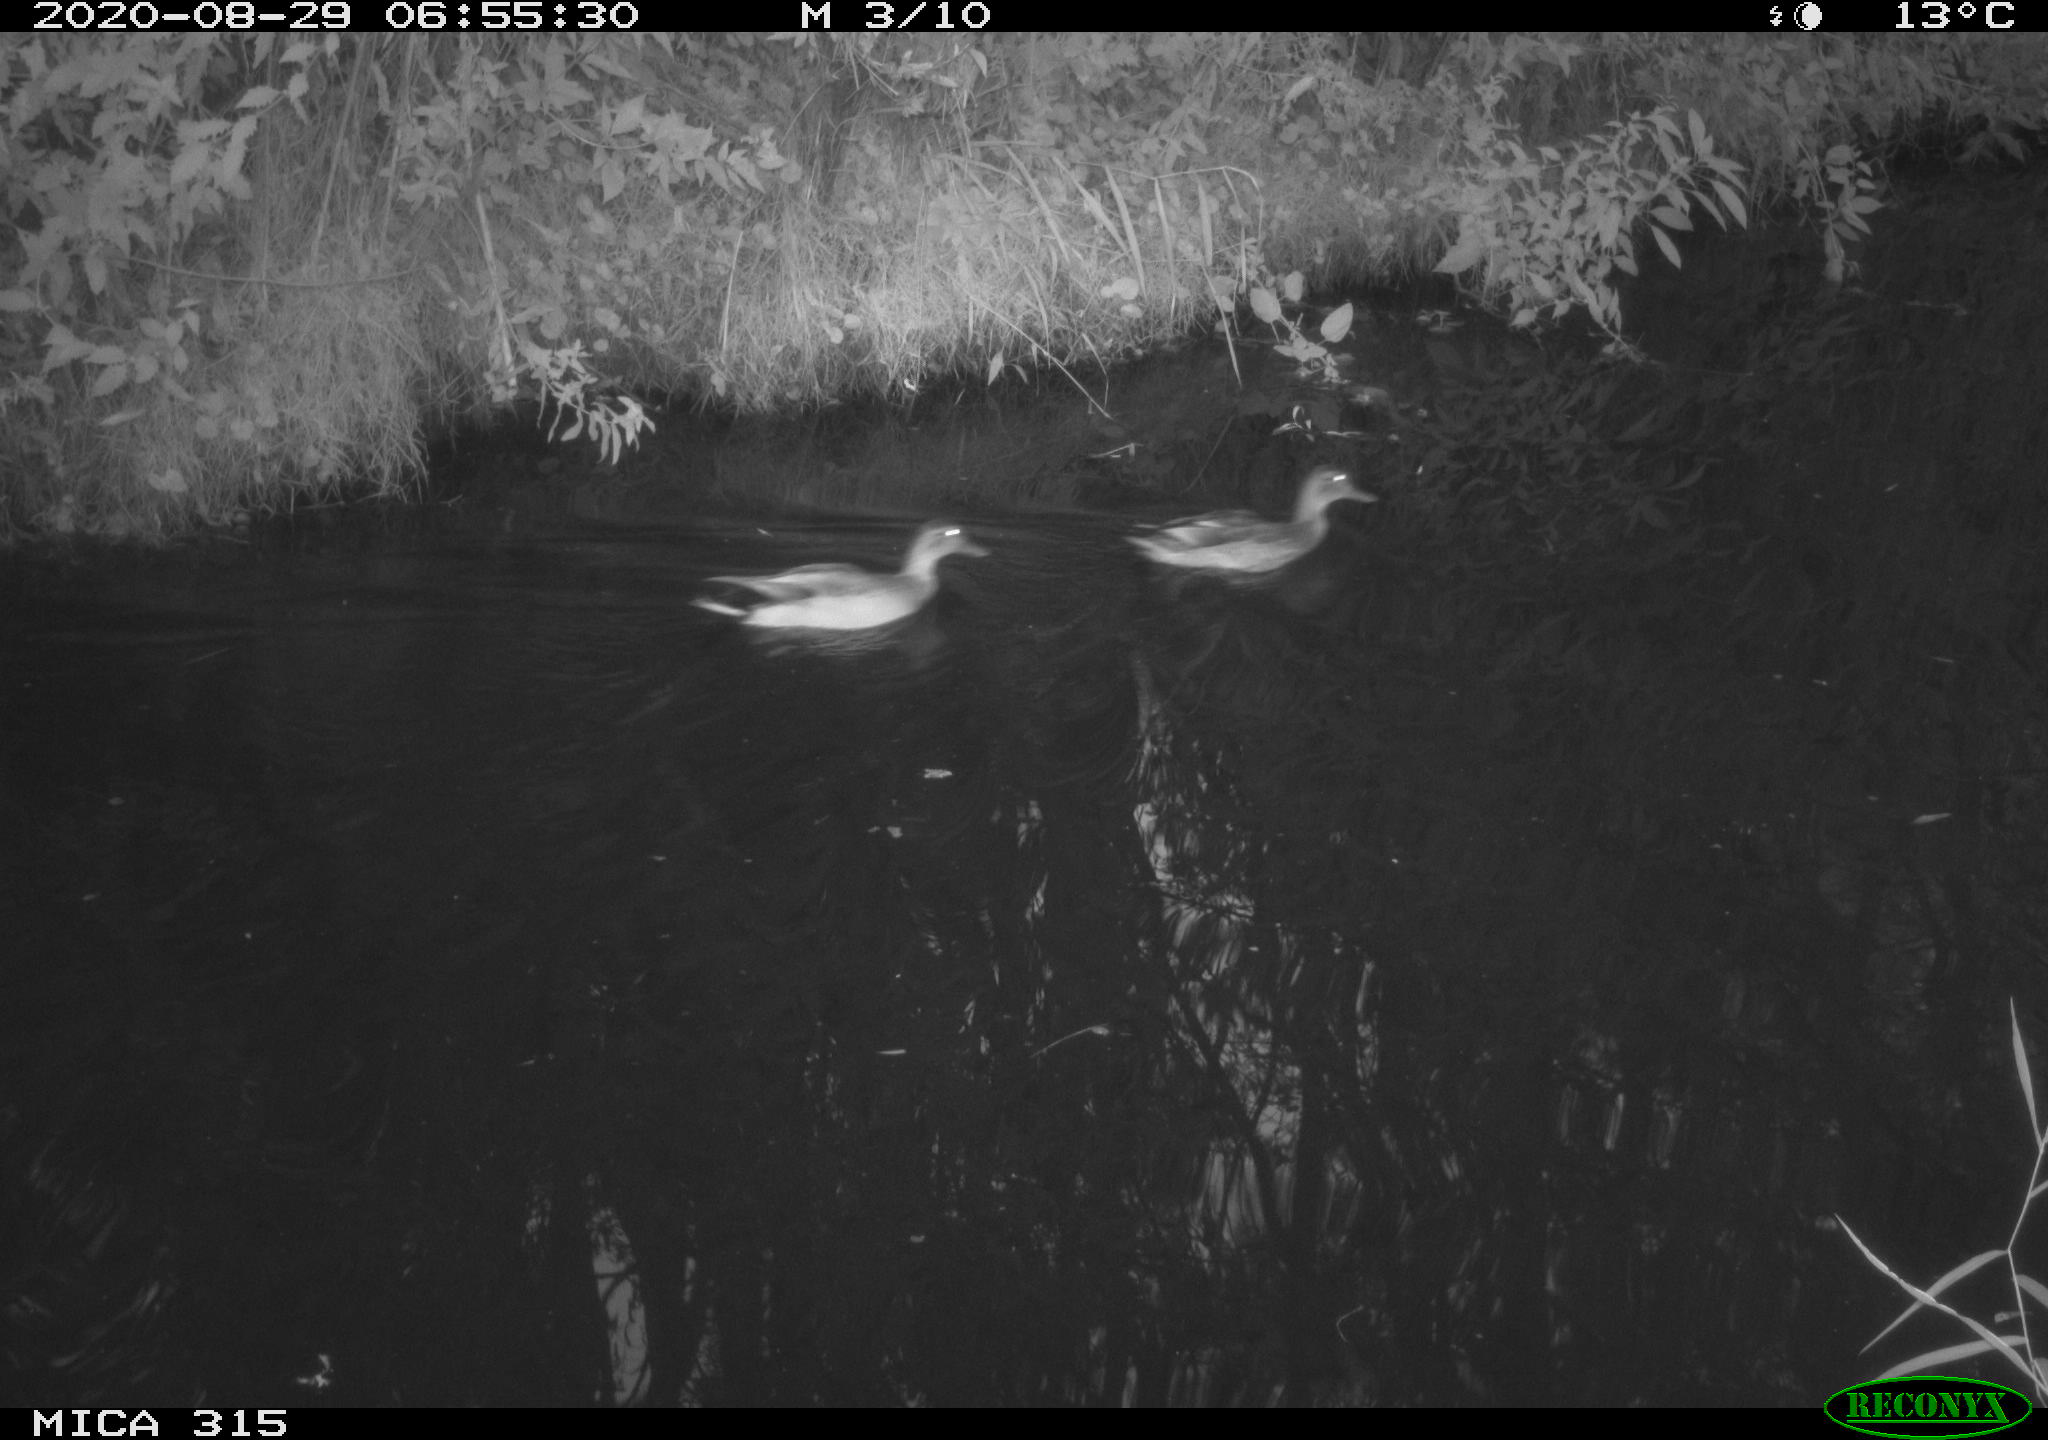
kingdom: Animalia
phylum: Chordata
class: Aves
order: Anseriformes
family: Anatidae
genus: Anas
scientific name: Anas platyrhynchos
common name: Mallard
